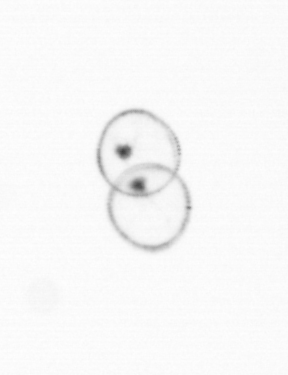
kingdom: Chromista
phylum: Myzozoa
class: Dinophyceae
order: Noctilucales
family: Noctilucaceae
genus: Noctiluca
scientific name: Noctiluca scintillans
